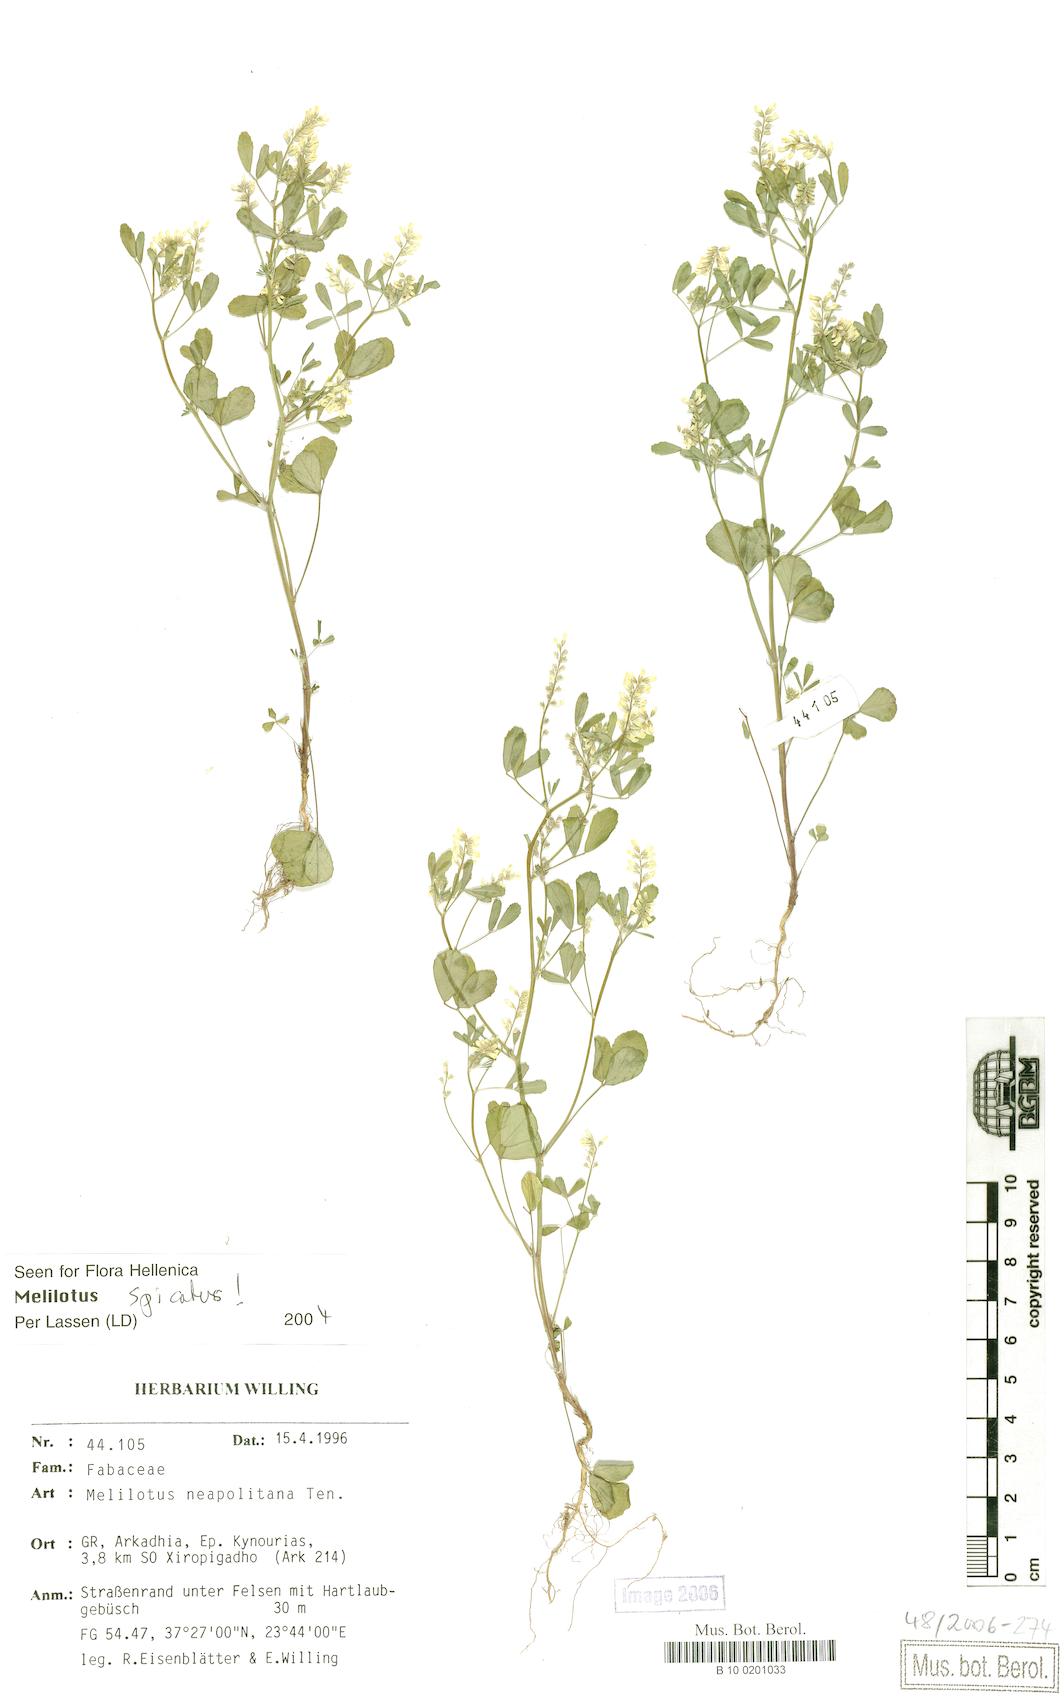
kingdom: Plantae
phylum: Tracheophyta
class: Magnoliopsida
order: Fabales
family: Fabaceae
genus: Melilotus
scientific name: Melilotus neapolitanus
